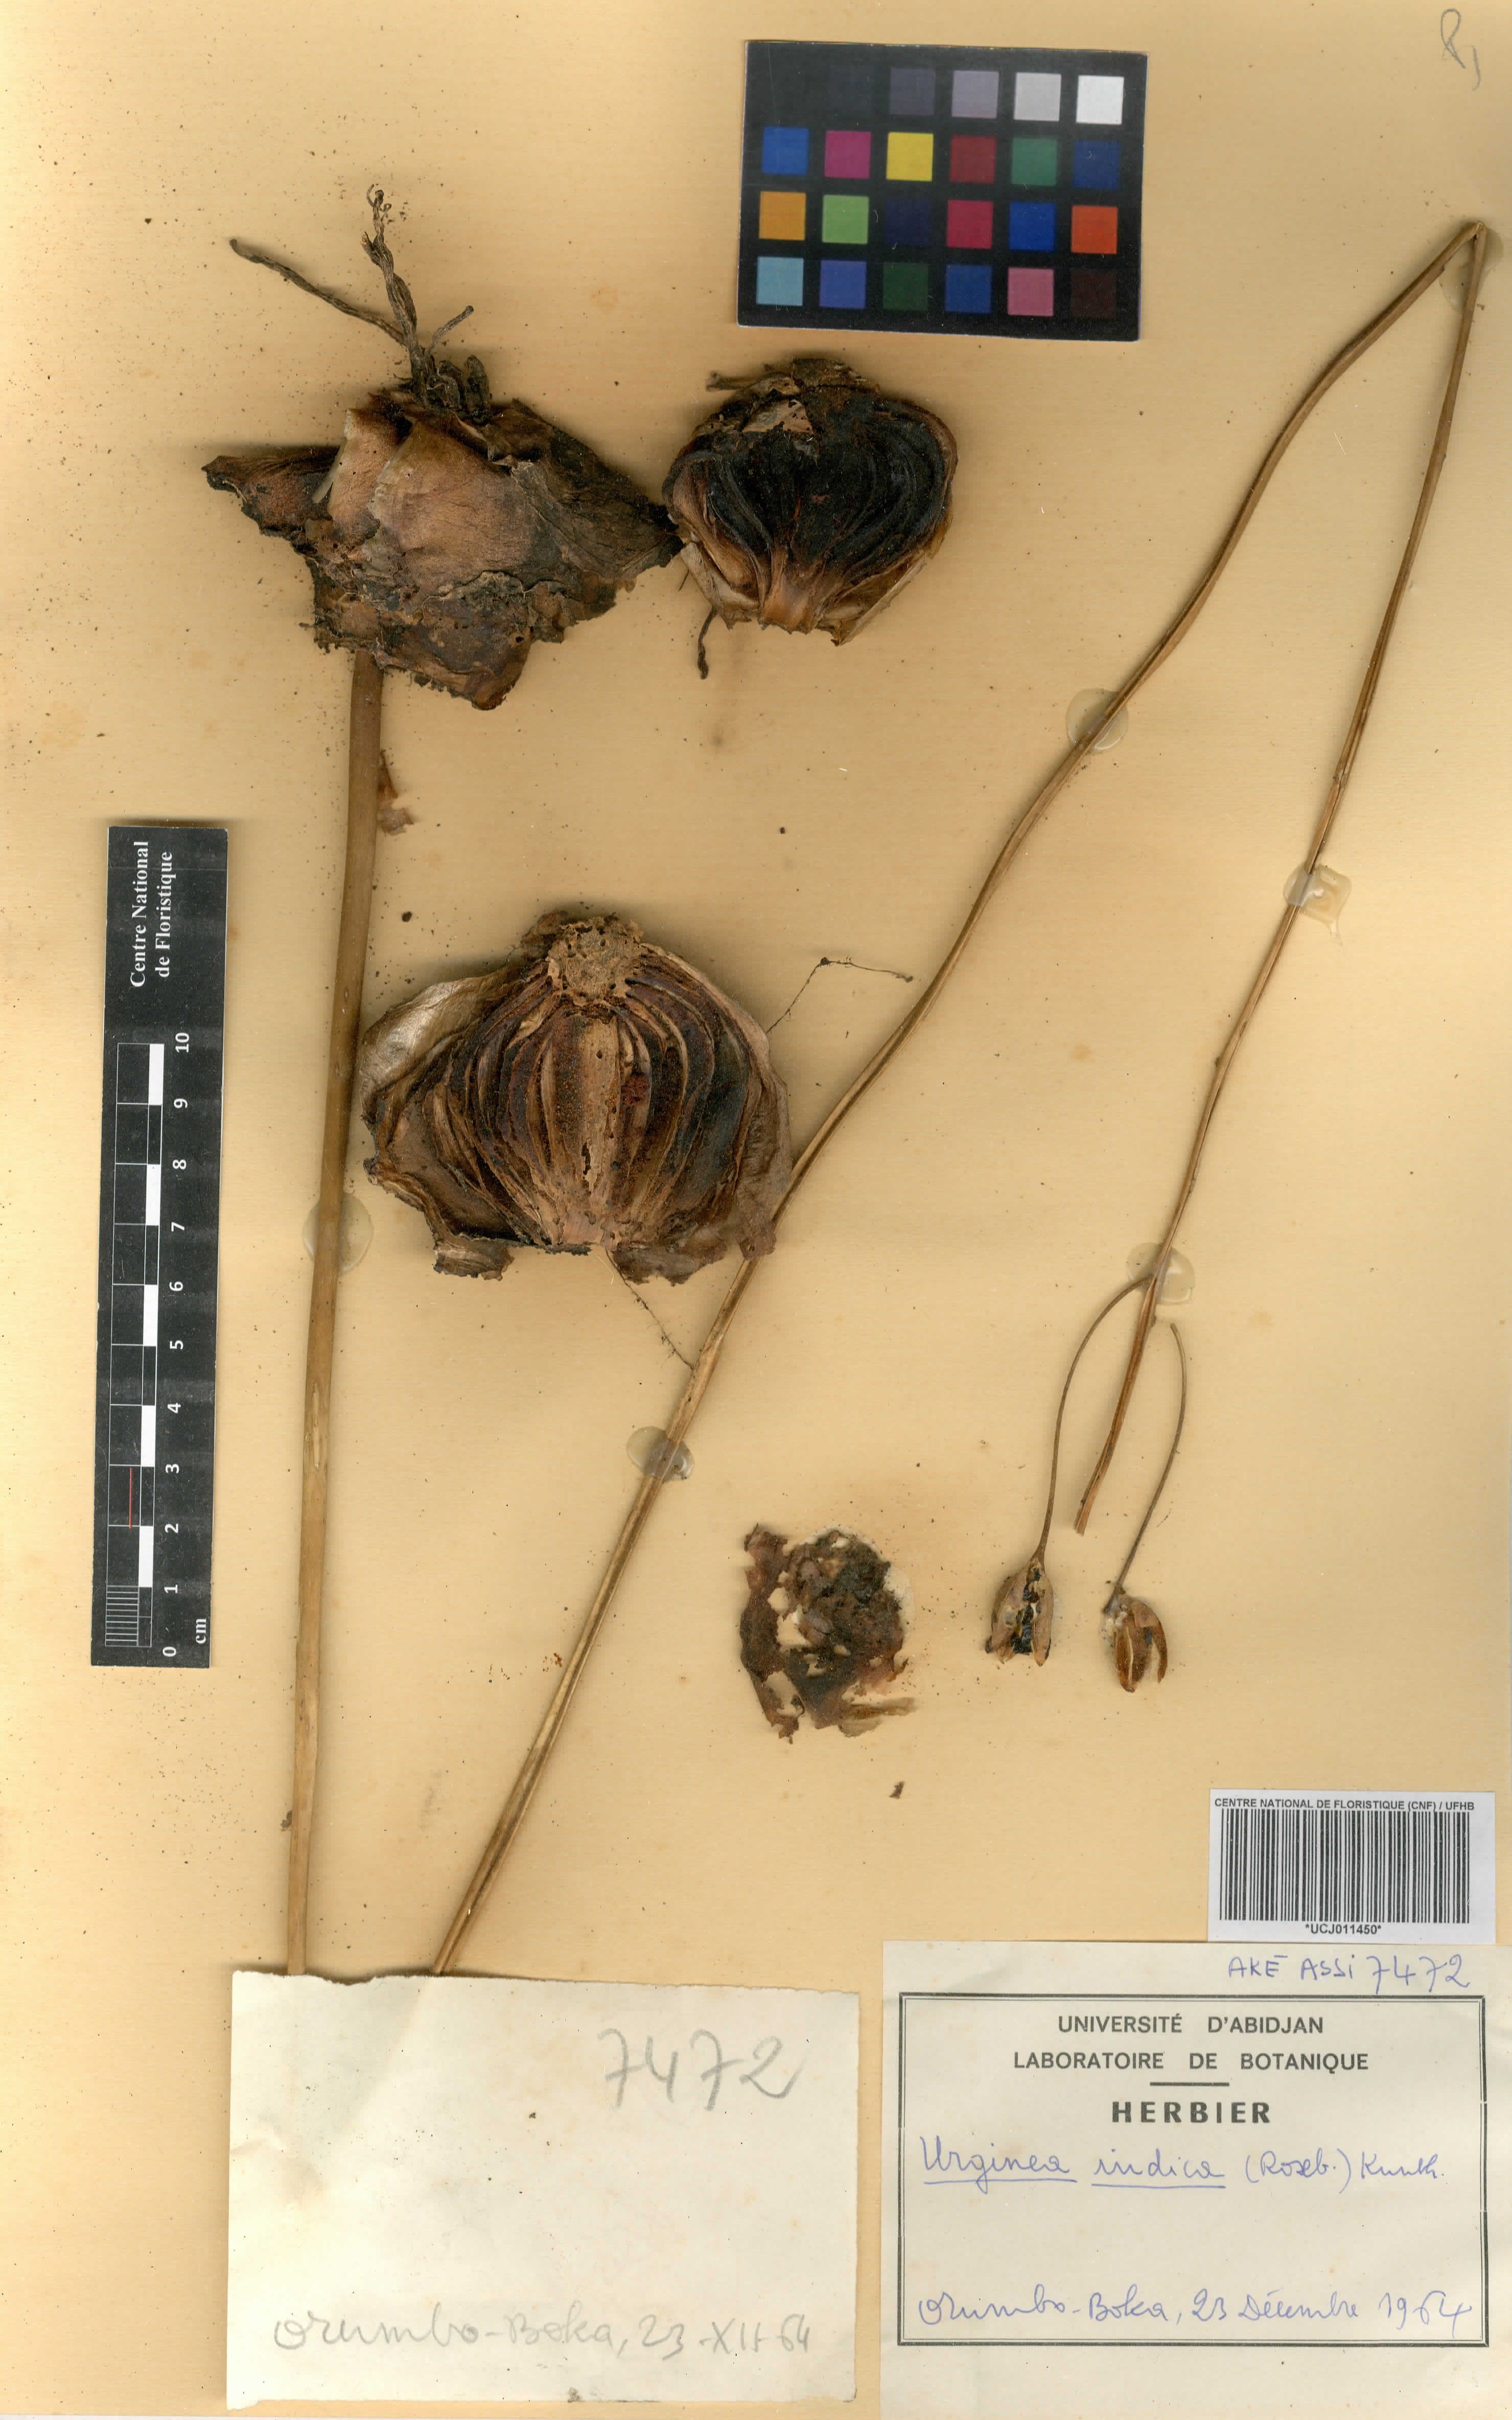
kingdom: Plantae
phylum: Tracheophyta
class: Liliopsida
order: Asparagales
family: Asparagaceae
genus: Drimia
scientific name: Drimia indica
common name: Indian-squill
